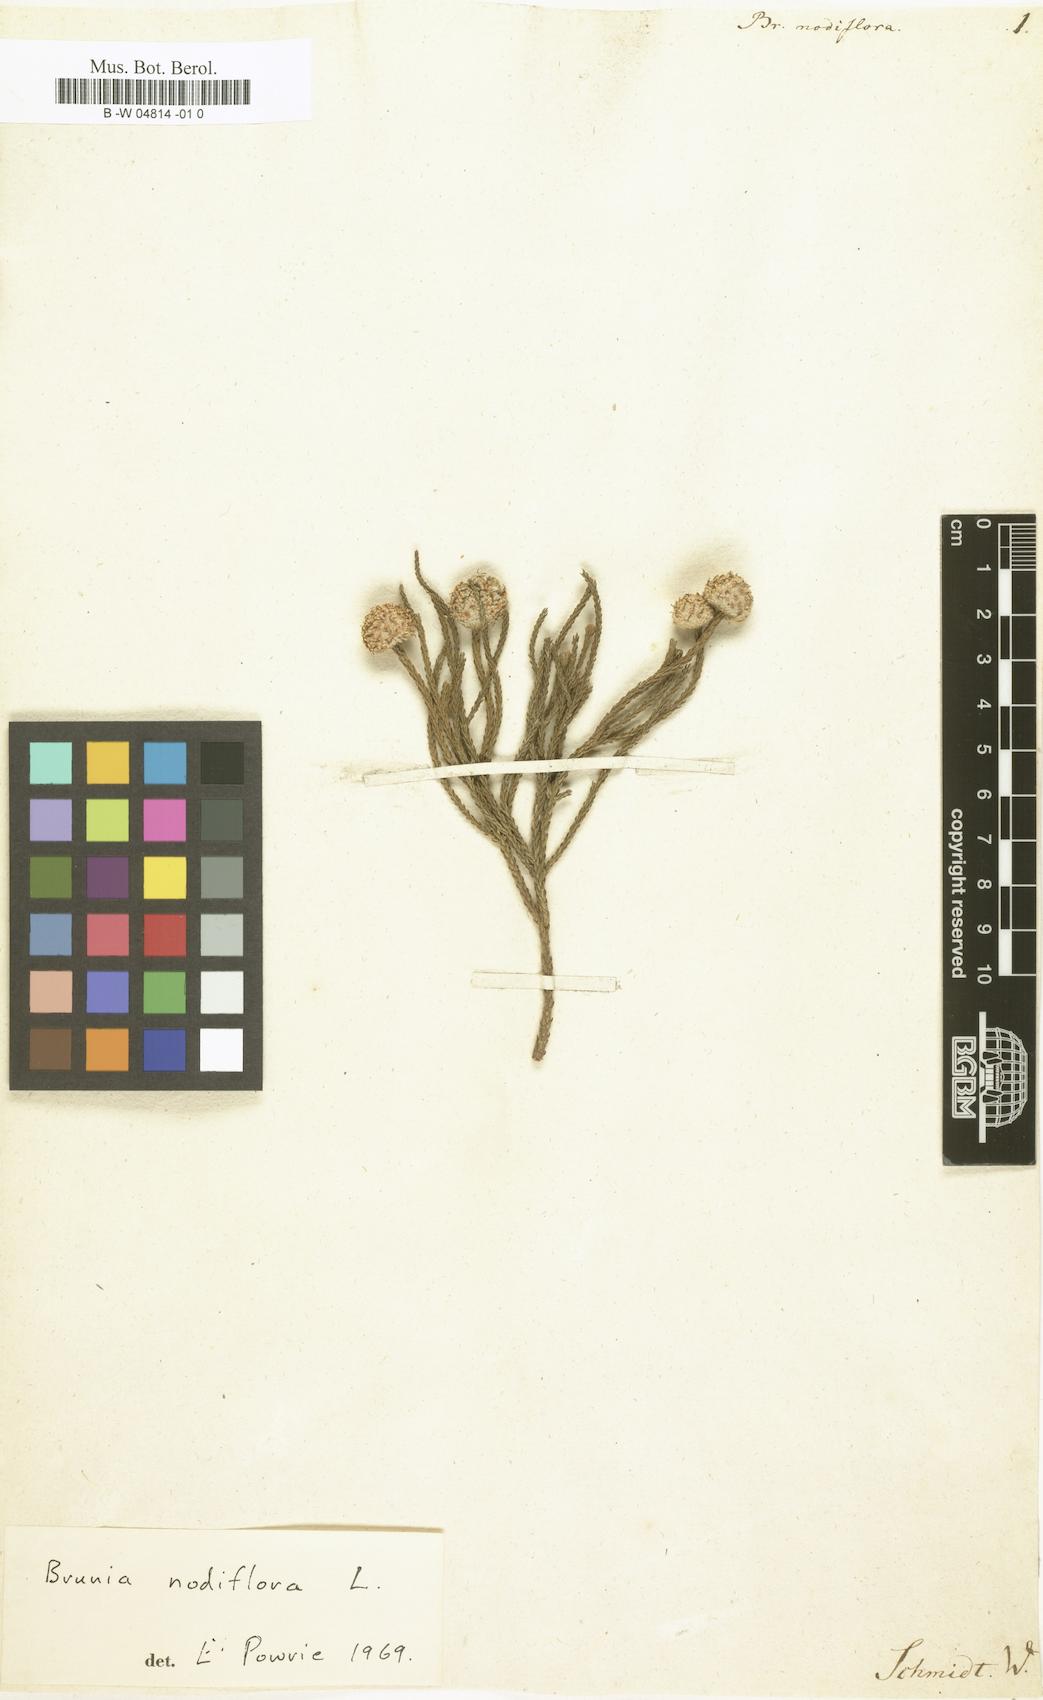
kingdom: Plantae
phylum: Tracheophyta
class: Magnoliopsida
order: Bruniales
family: Bruniaceae
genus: Brunia
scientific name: Brunia nodiflora
